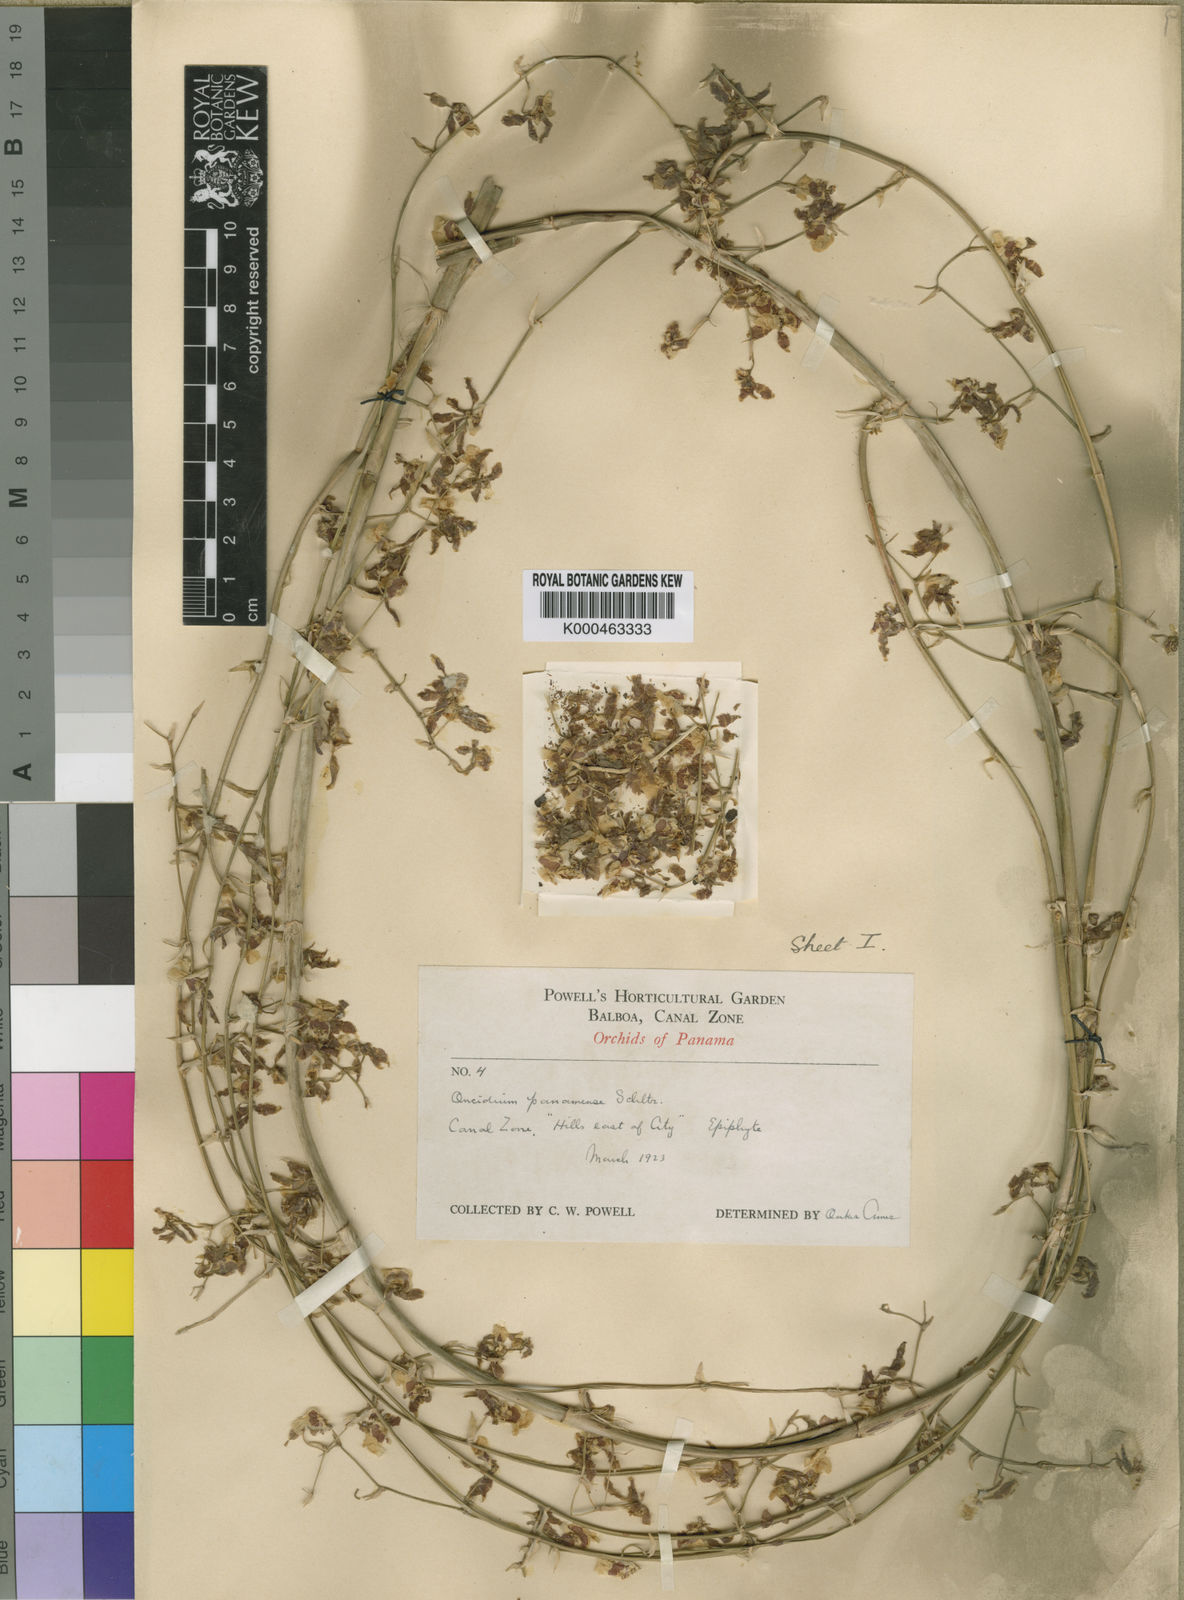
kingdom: Plantae
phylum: Tracheophyta
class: Liliopsida
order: Asparagales
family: Orchidaceae
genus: Oncidium
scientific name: Oncidium panamense
